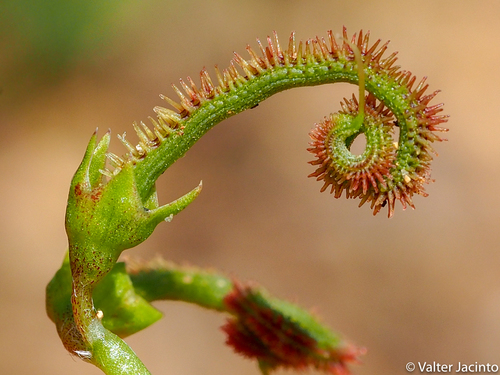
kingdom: Plantae
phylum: Tracheophyta
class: Magnoliopsida
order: Fabales
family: Fabaceae
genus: Scorpiurus
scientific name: Scorpiurus muricatus
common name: Caterpillar-plant
